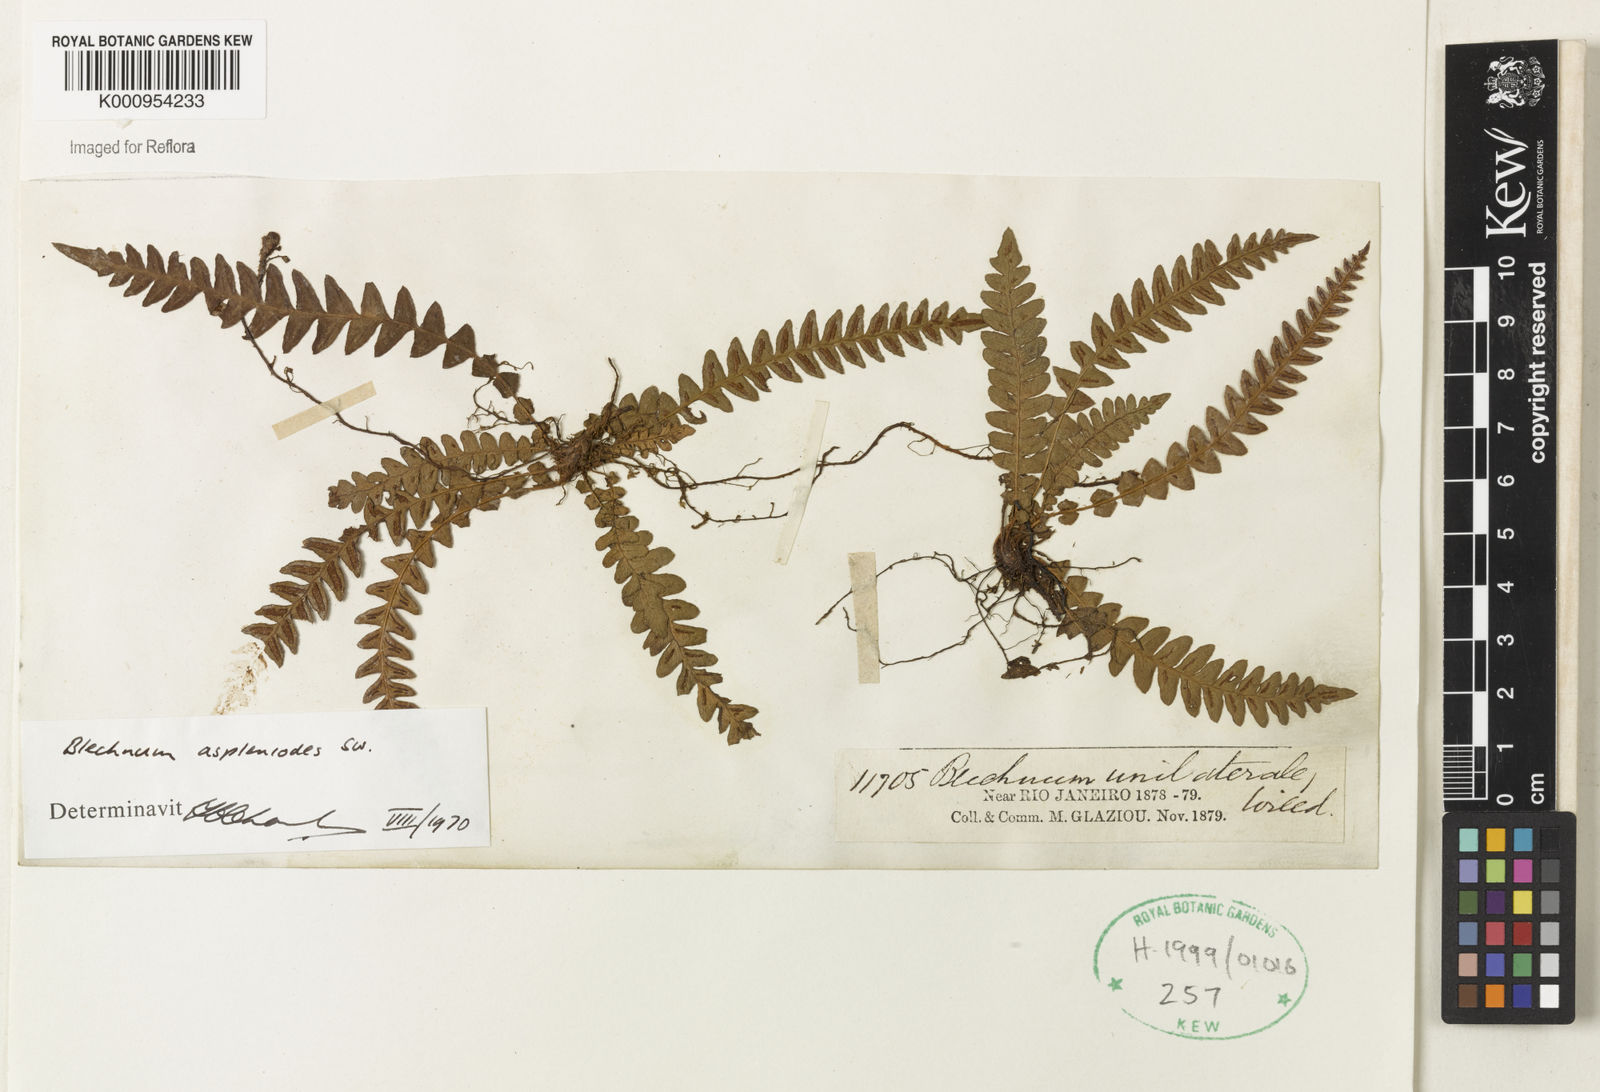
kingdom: Plantae
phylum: Tracheophyta
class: Polypodiopsida
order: Polypodiales
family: Blechnaceae
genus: Blechnum
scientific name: Blechnum asplenioides
